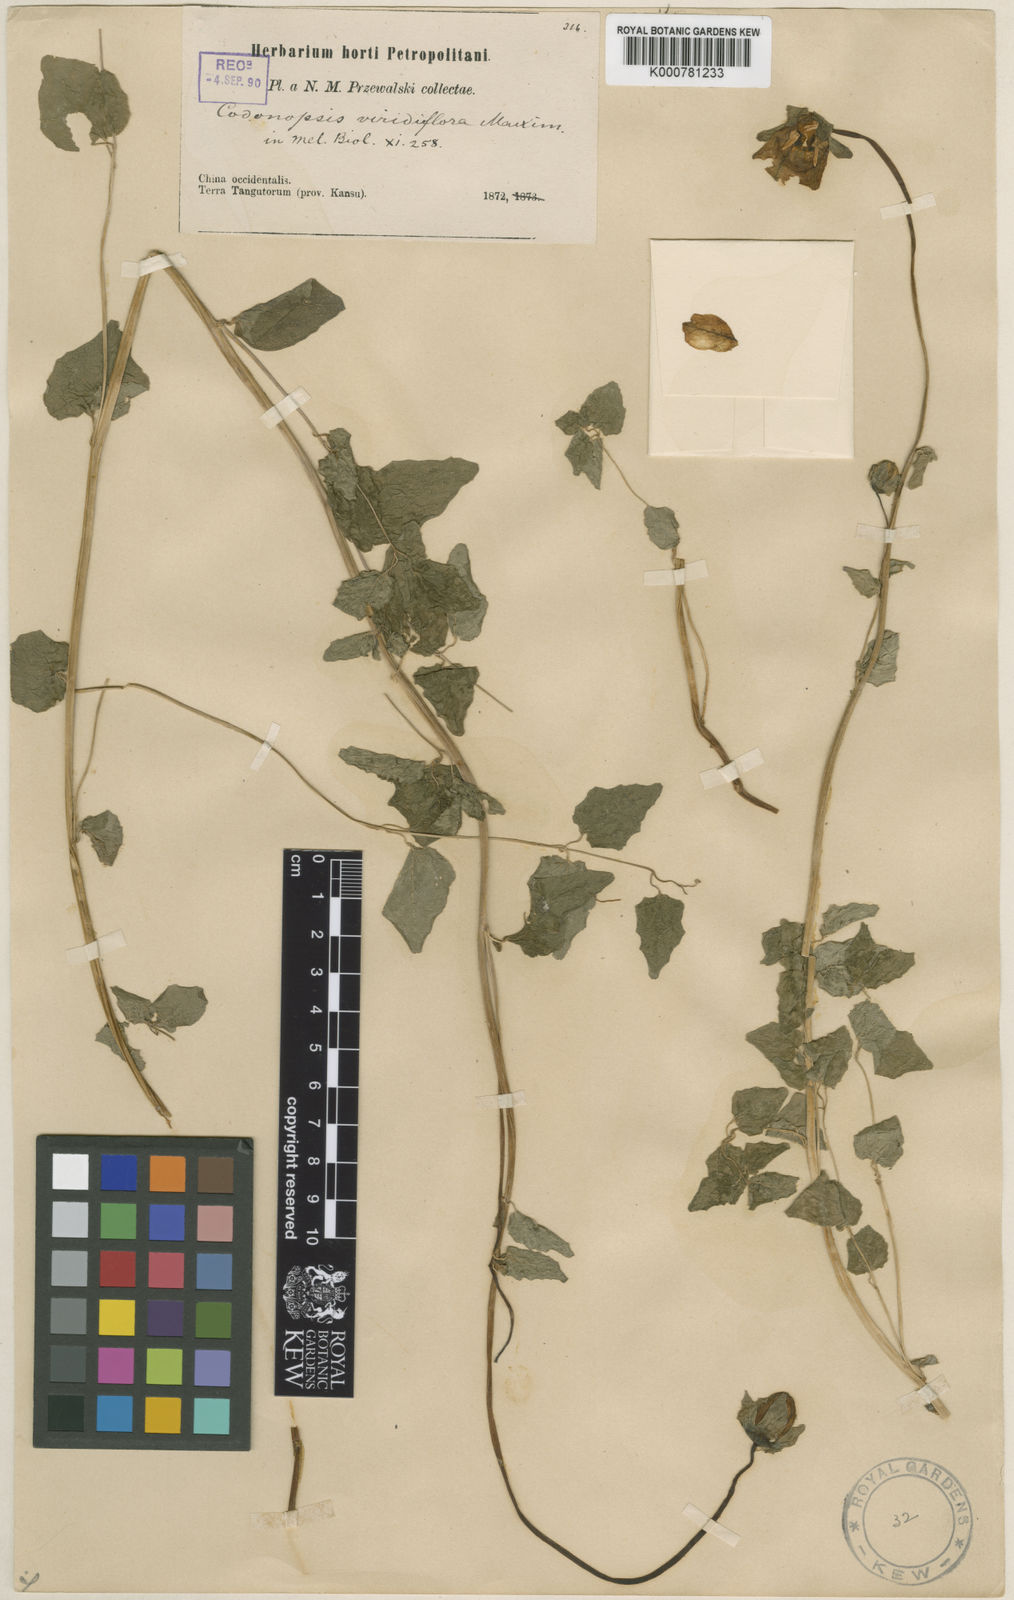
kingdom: Plantae
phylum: Tracheophyta
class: Magnoliopsida
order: Asterales
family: Campanulaceae
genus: Codonopsis
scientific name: Codonopsis viridiflora
